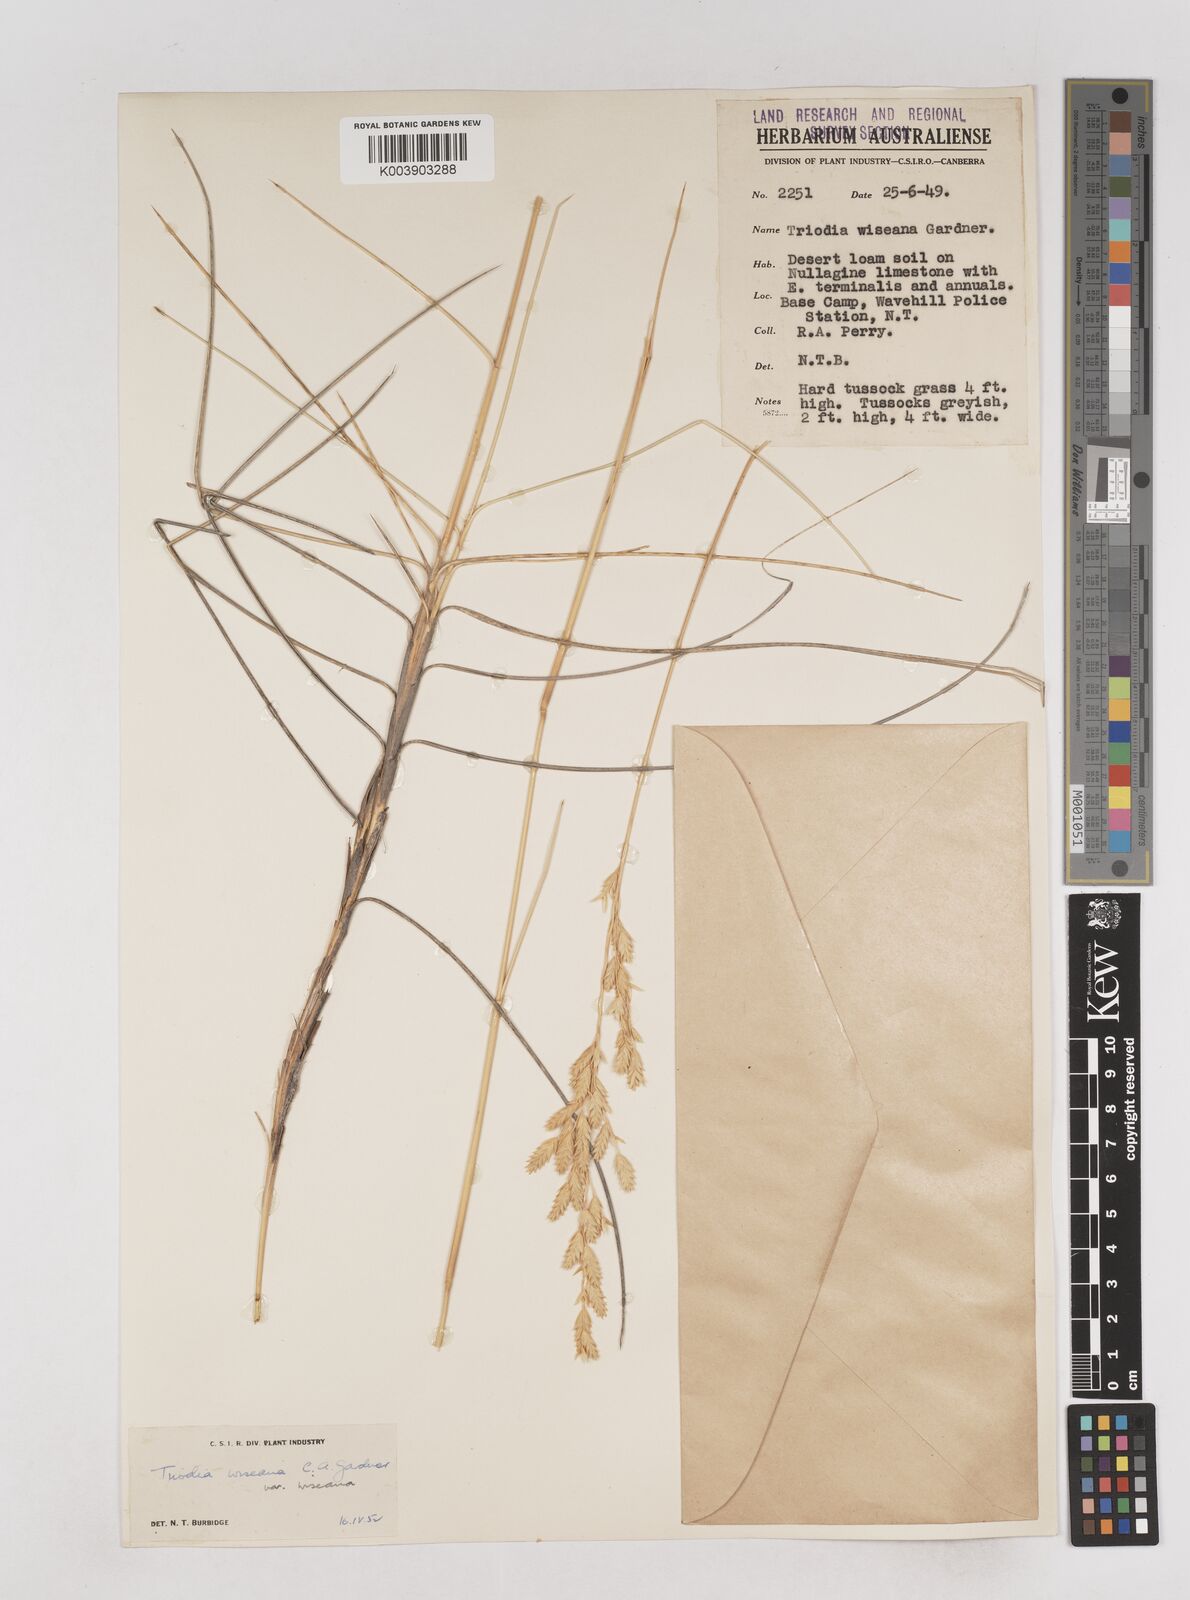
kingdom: Plantae
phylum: Tracheophyta
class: Liliopsida
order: Poales
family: Poaceae
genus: Triodia
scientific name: Triodia wiseana
